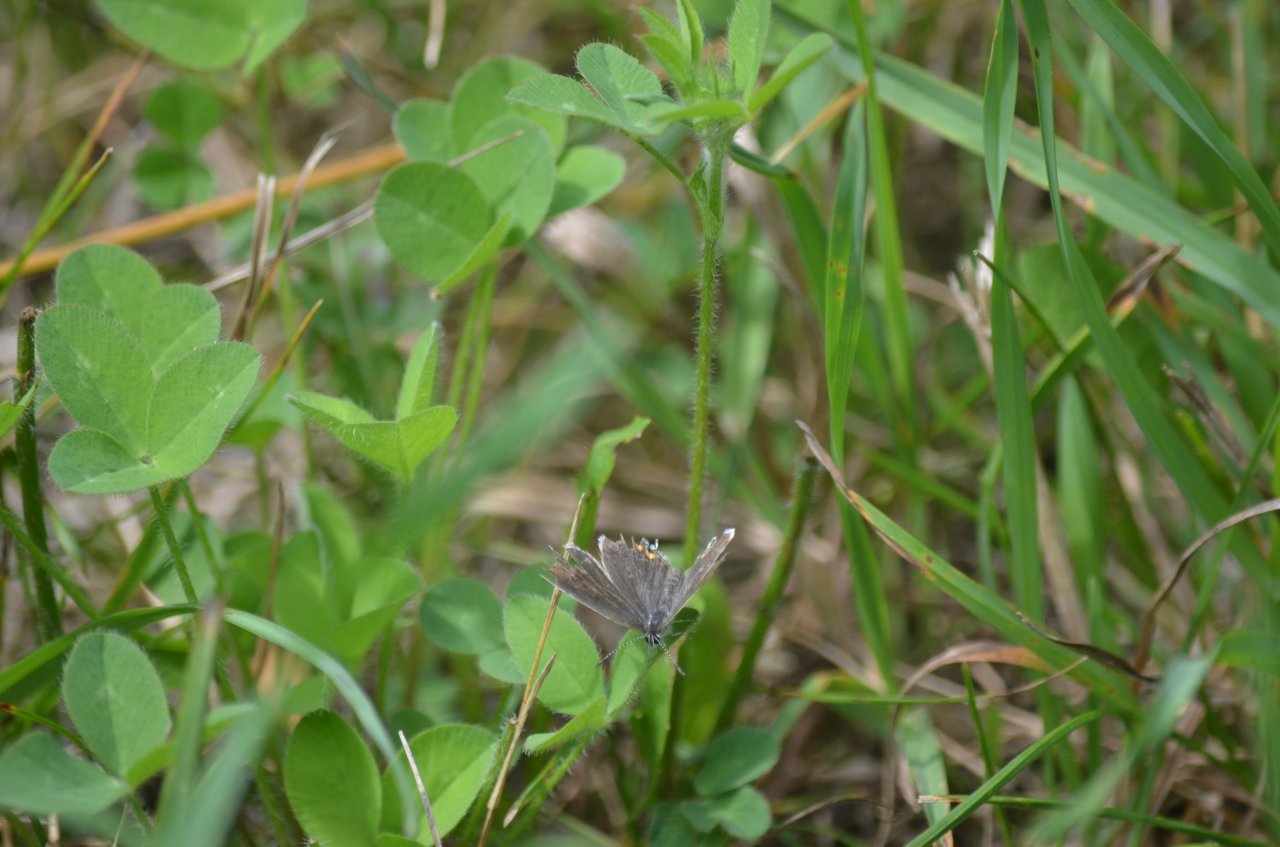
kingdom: Animalia
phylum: Arthropoda
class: Insecta
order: Lepidoptera
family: Lycaenidae
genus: Elkalyce
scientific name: Elkalyce comyntas
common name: Eastern Tailed-Blue
